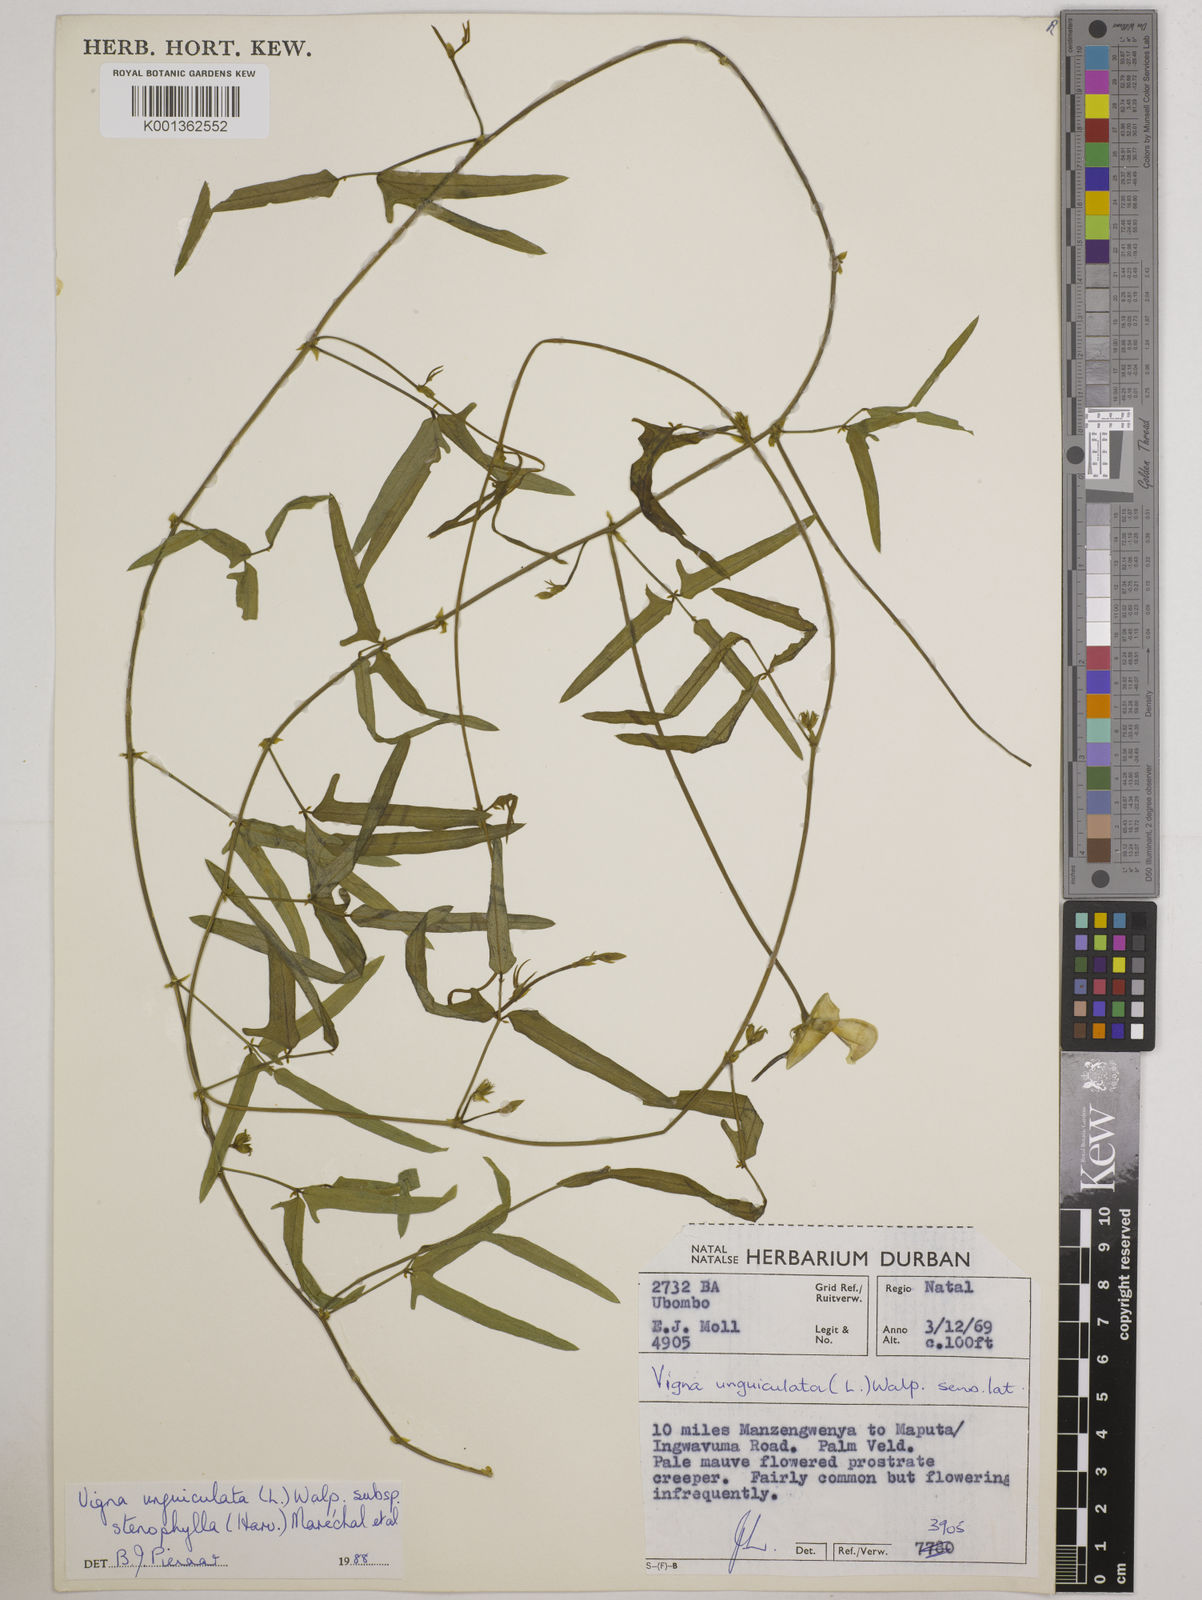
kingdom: Plantae
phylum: Tracheophyta
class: Magnoliopsida
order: Fabales
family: Fabaceae
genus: Vigna
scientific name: Vigna
